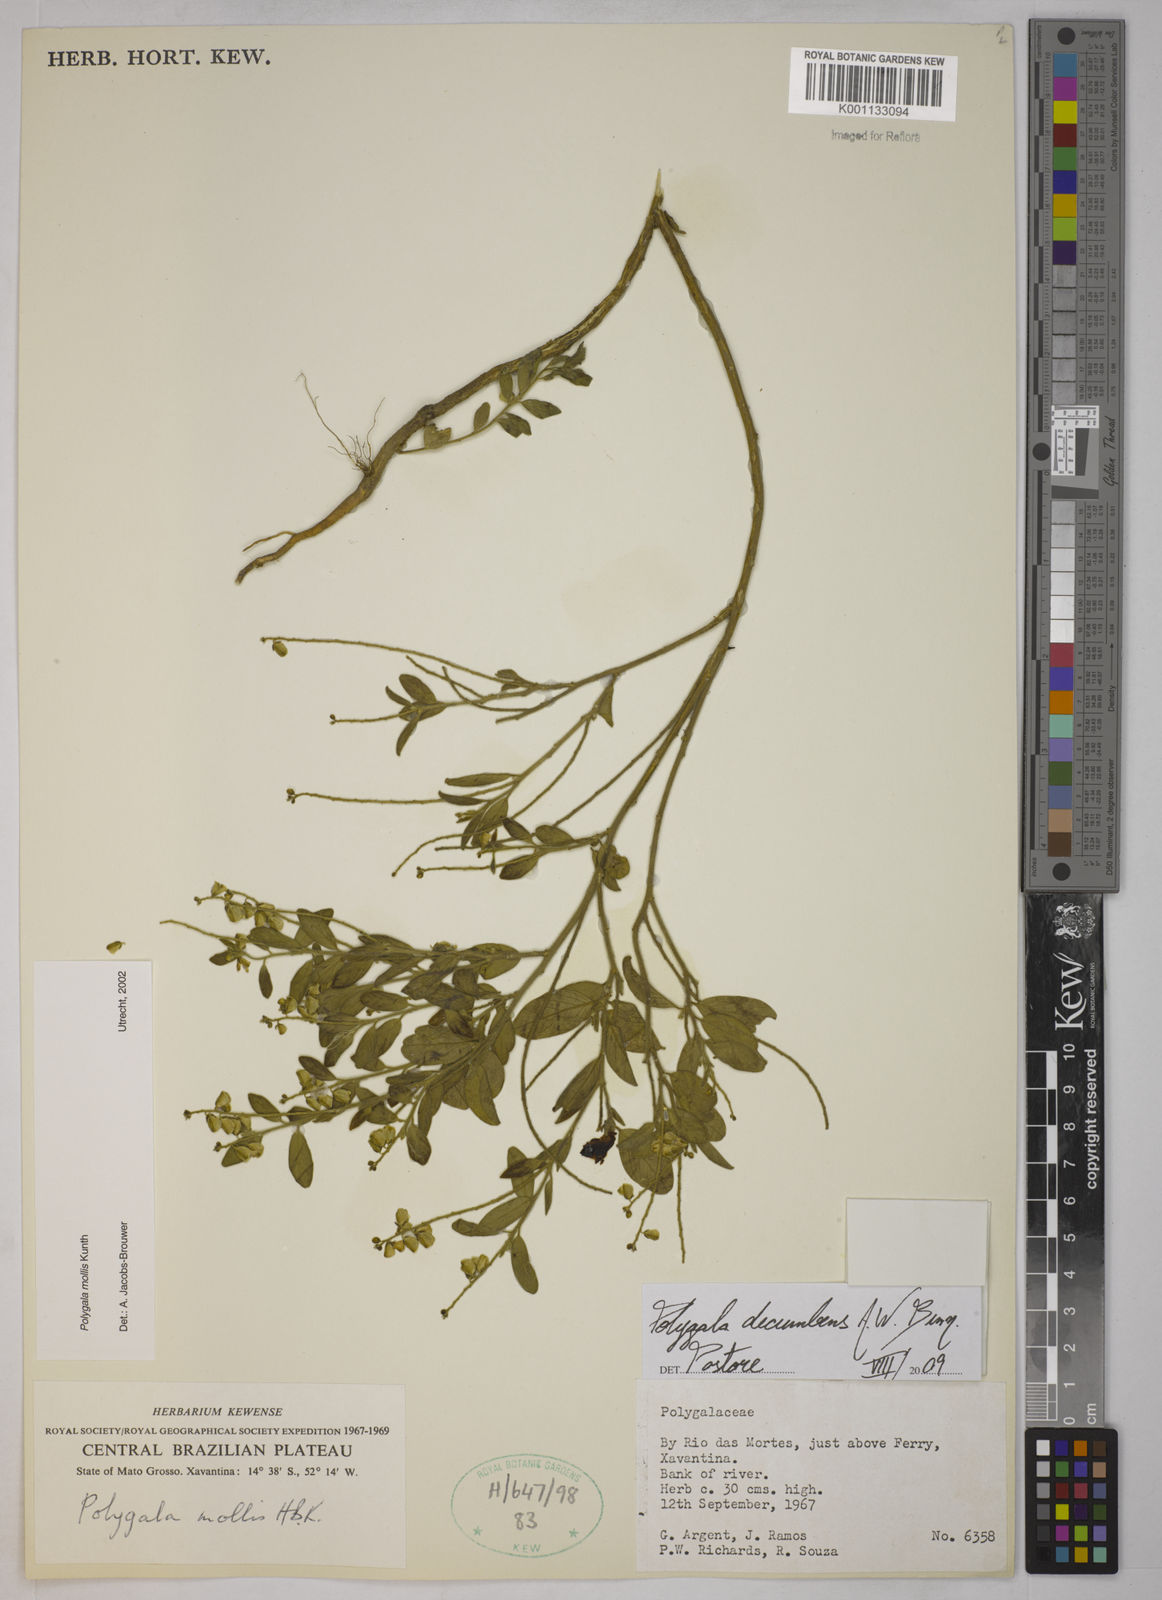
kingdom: Plantae
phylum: Tracheophyta
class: Magnoliopsida
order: Fabales
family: Polygalaceae
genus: Asemeia
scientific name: Asemeia ovata
